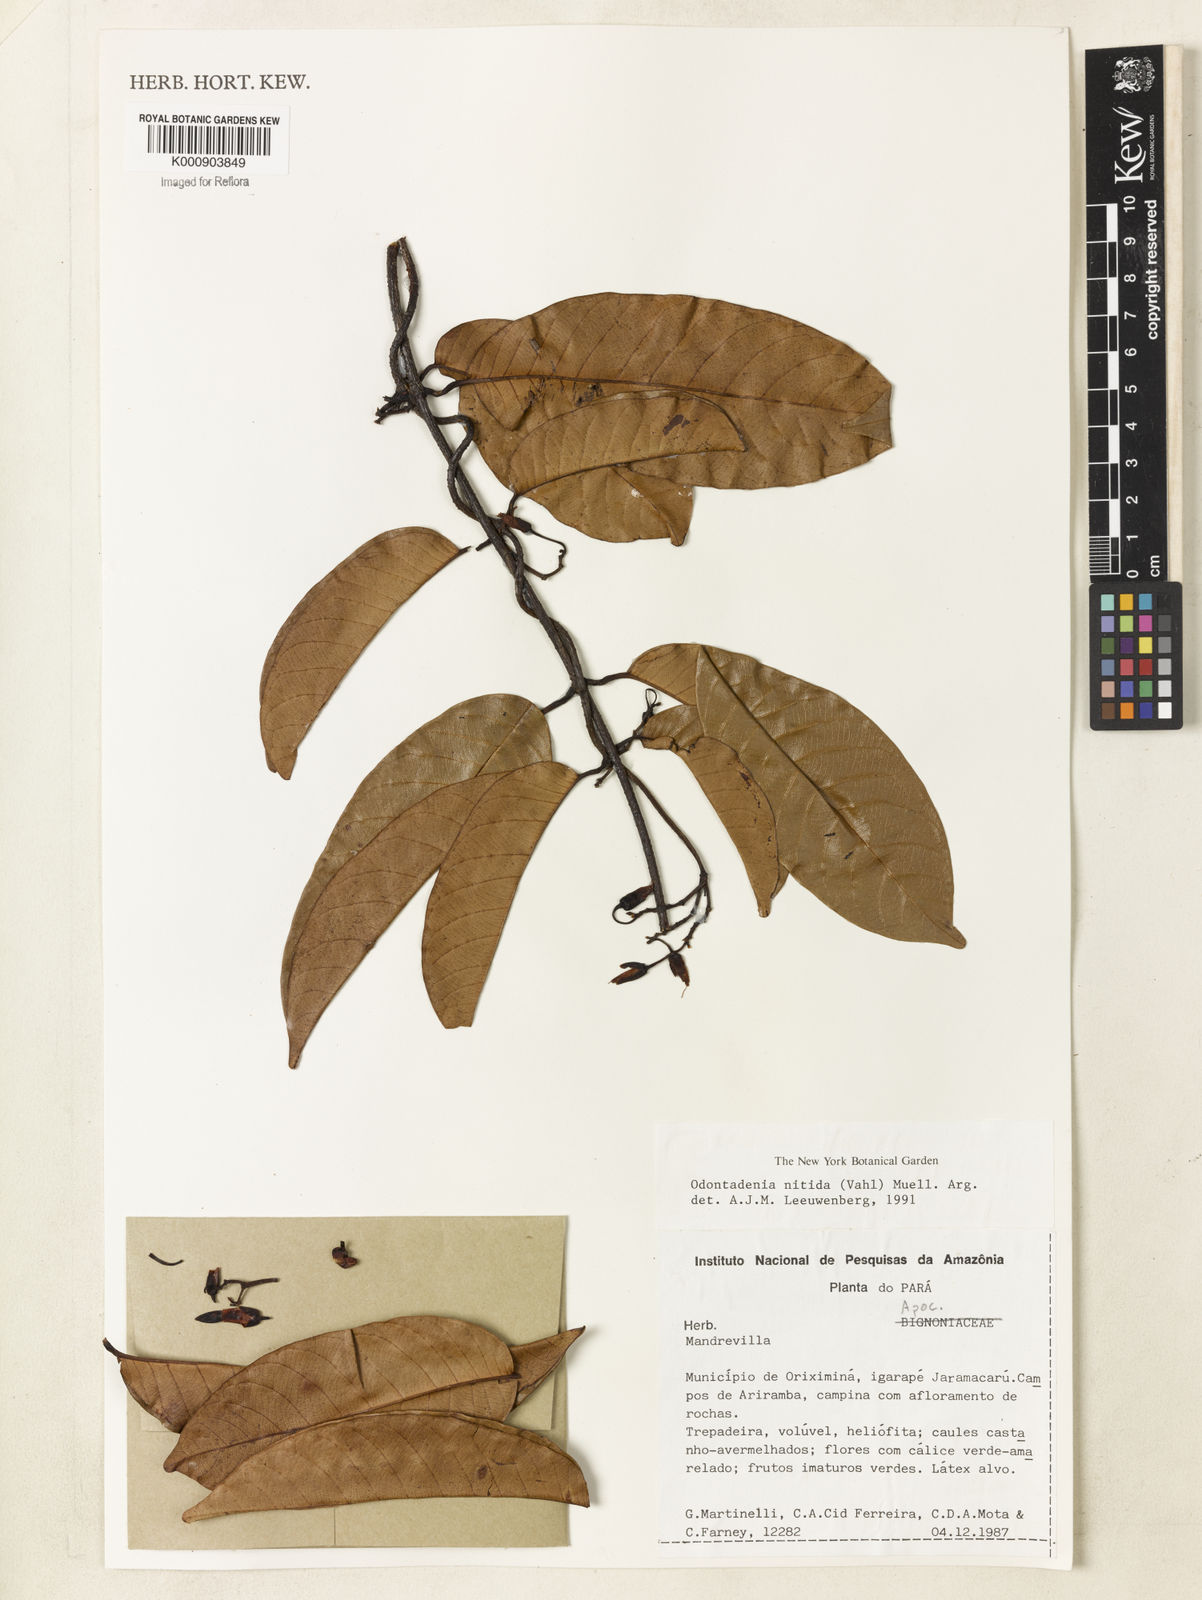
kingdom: Plantae
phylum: Tracheophyta
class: Magnoliopsida
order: Gentianales
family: Apocynaceae
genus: Odontadenia
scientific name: Odontadenia
